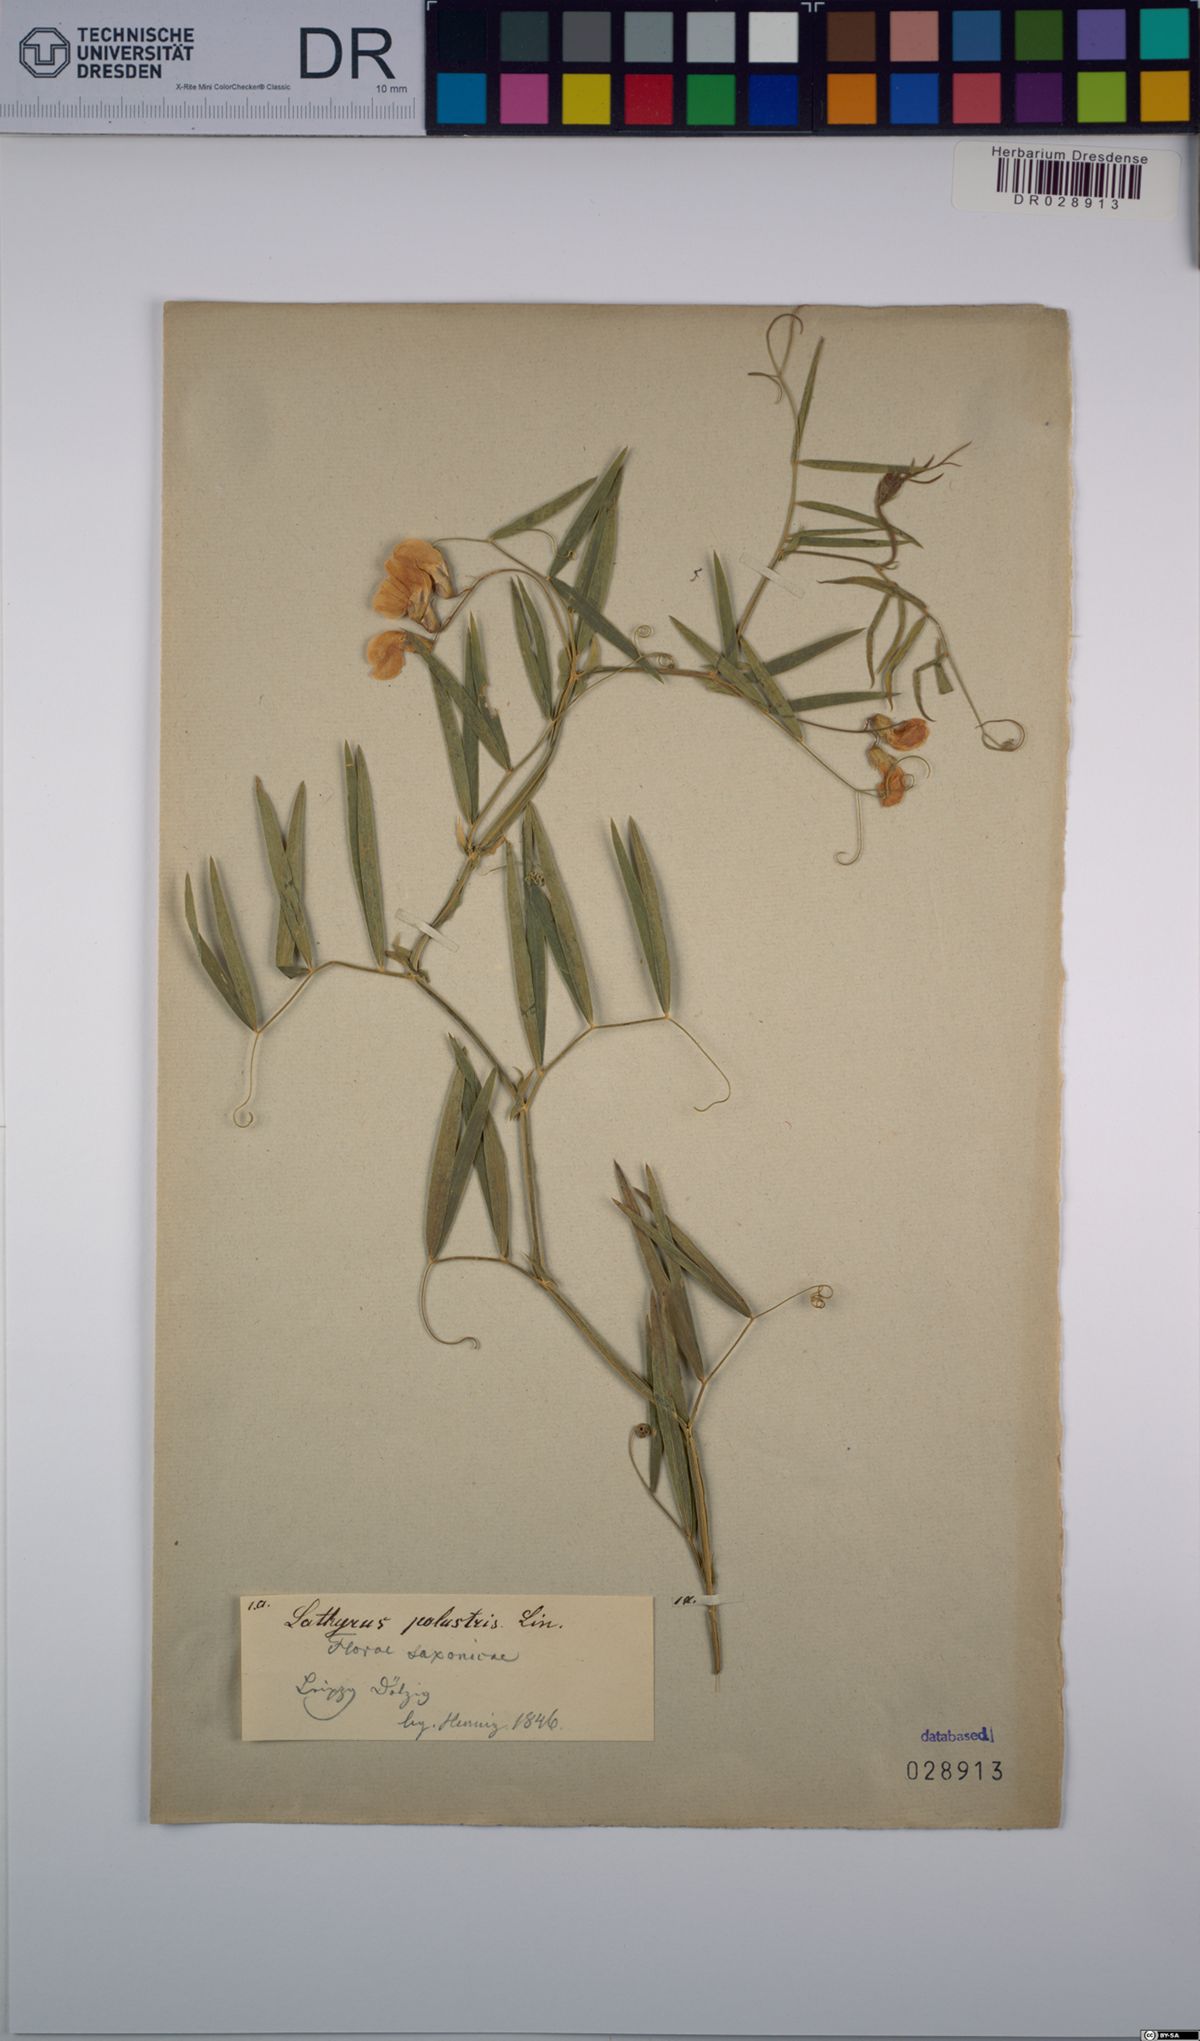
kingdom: Plantae
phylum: Tracheophyta
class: Magnoliopsida
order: Fabales
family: Fabaceae
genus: Lathyrus
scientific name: Lathyrus palustris
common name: Marsh pea
